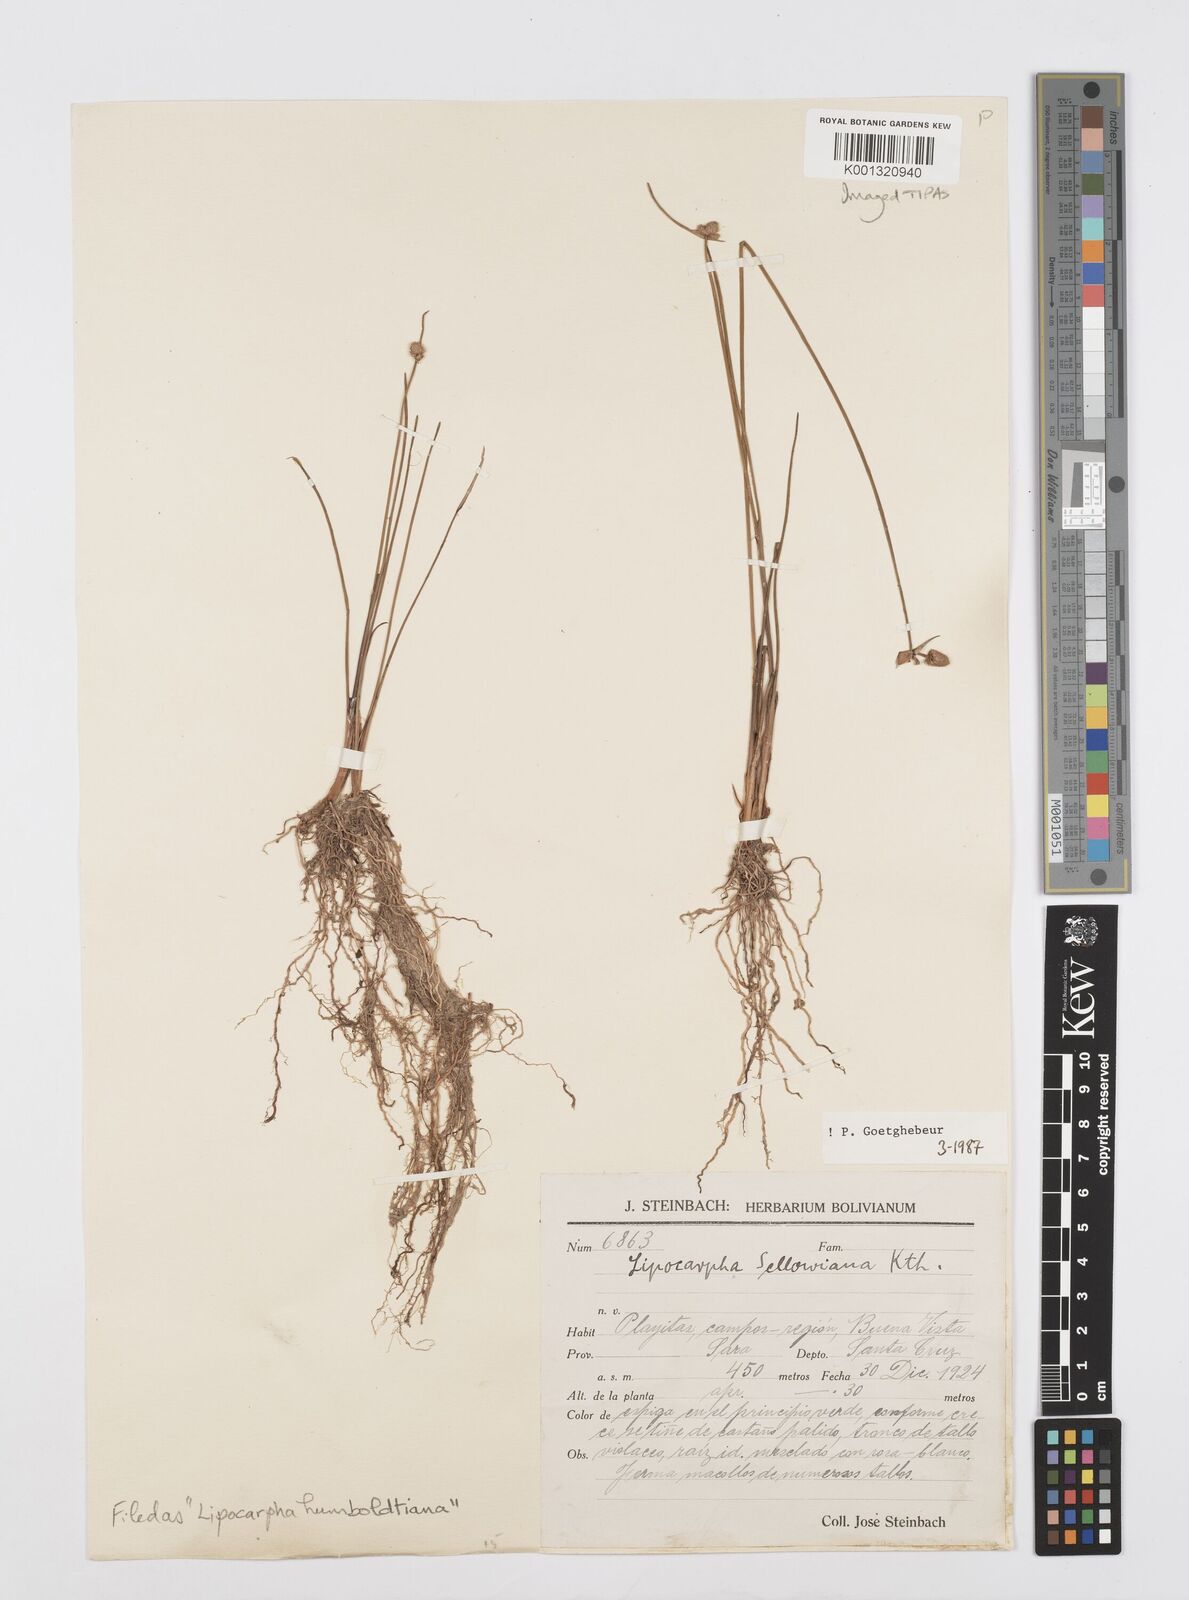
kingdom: Plantae
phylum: Tracheophyta
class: Liliopsida
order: Poales
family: Cyperaceae
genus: Cyperus
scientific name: Cyperus lanceolatus
